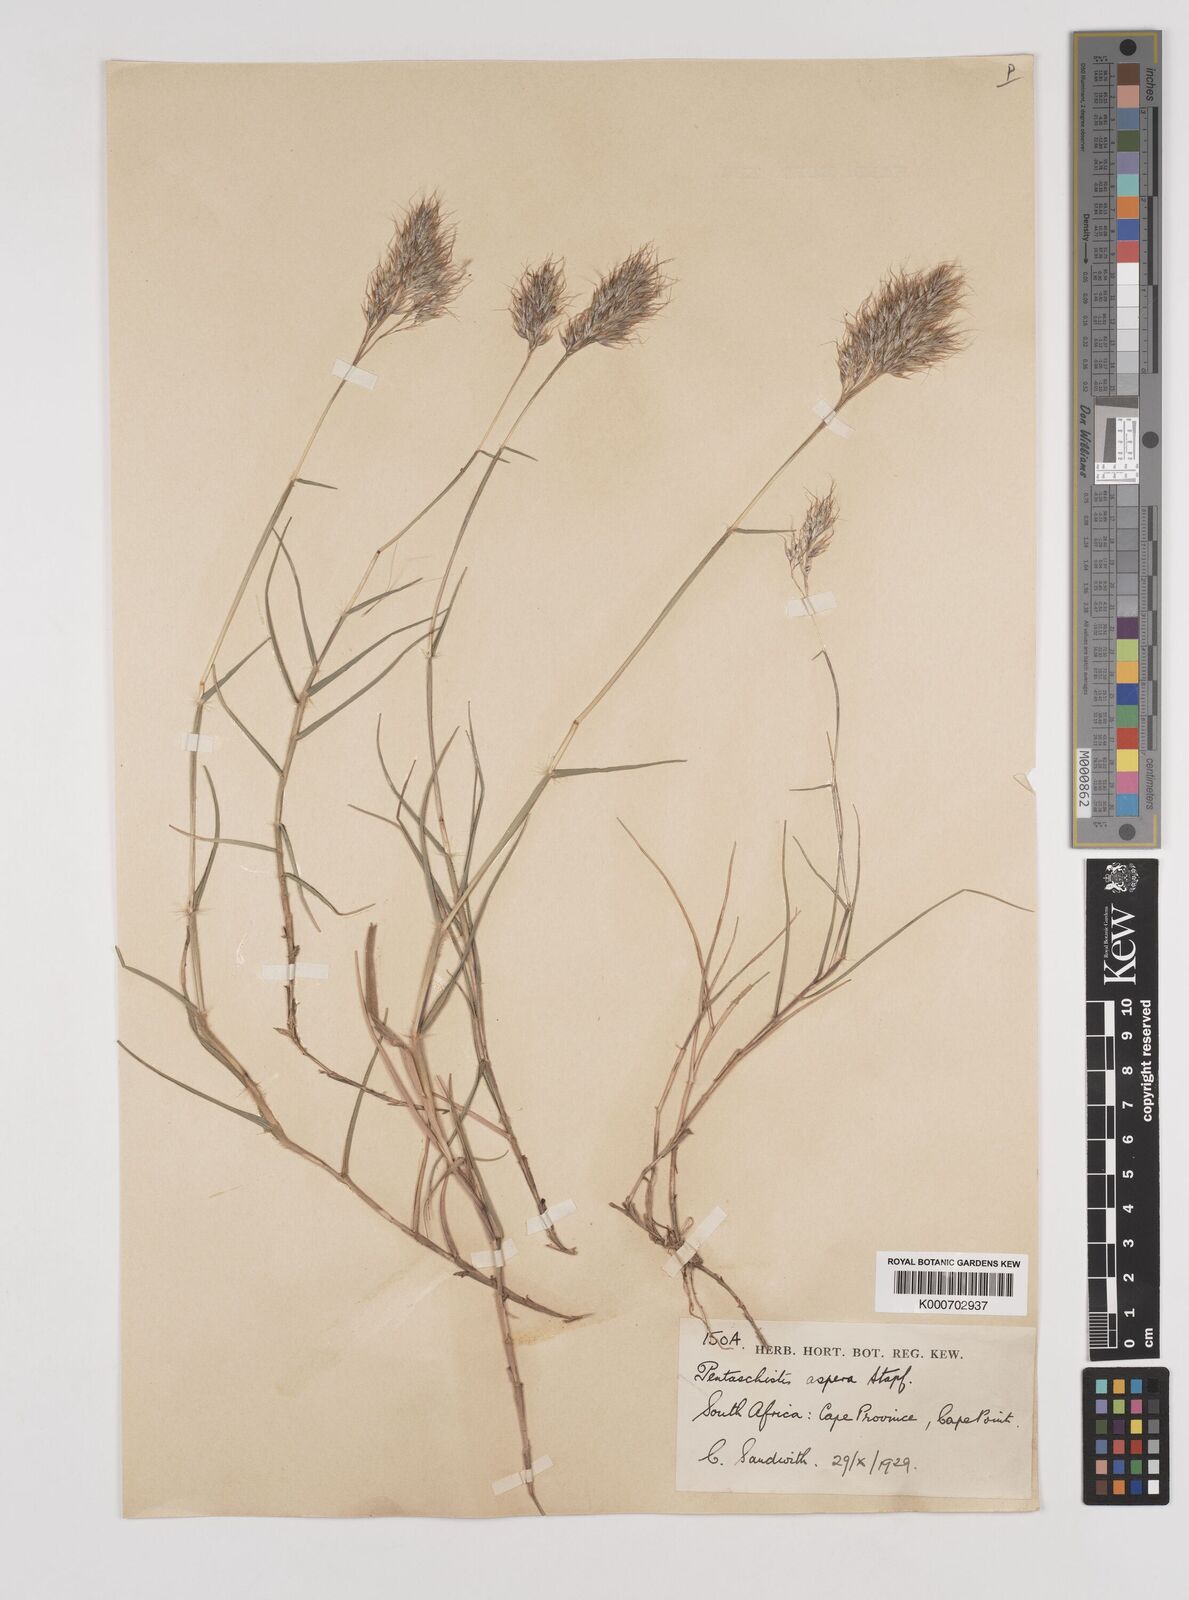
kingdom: Plantae
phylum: Tracheophyta
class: Liliopsida
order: Poales
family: Poaceae
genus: Pentameris
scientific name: Pentameris scabra
